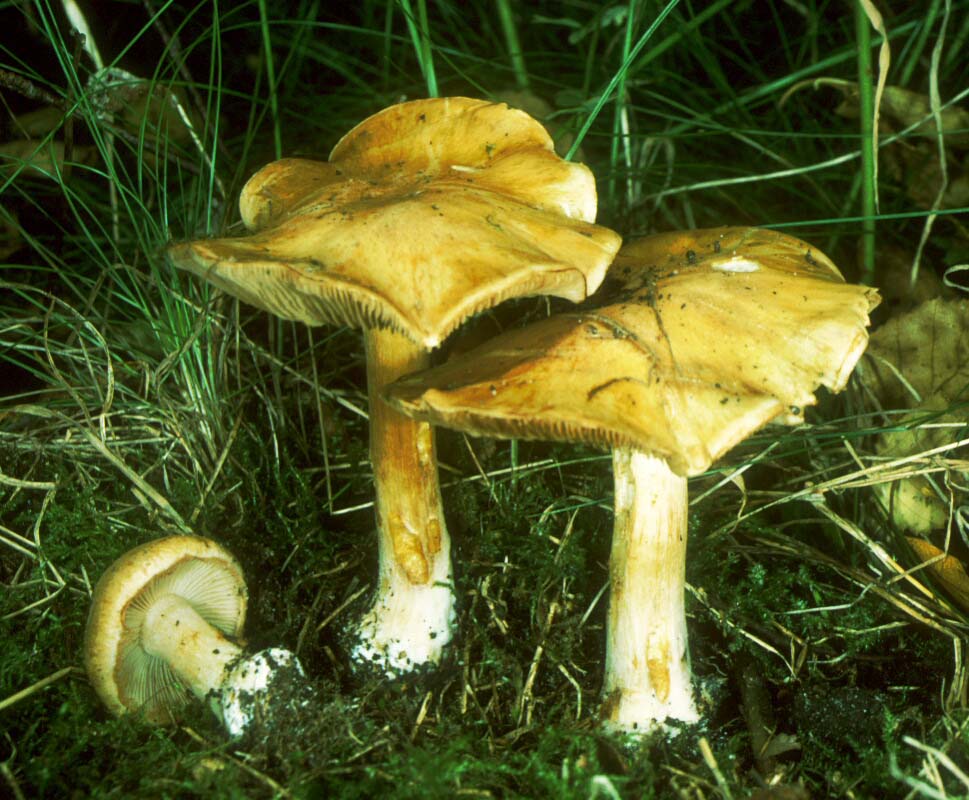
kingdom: Fungi
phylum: Basidiomycota
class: Agaricomycetes
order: Agaricales
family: Cortinariaceae
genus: Thaxterogaster
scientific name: Thaxterogaster talus
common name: knogle-slørhat
